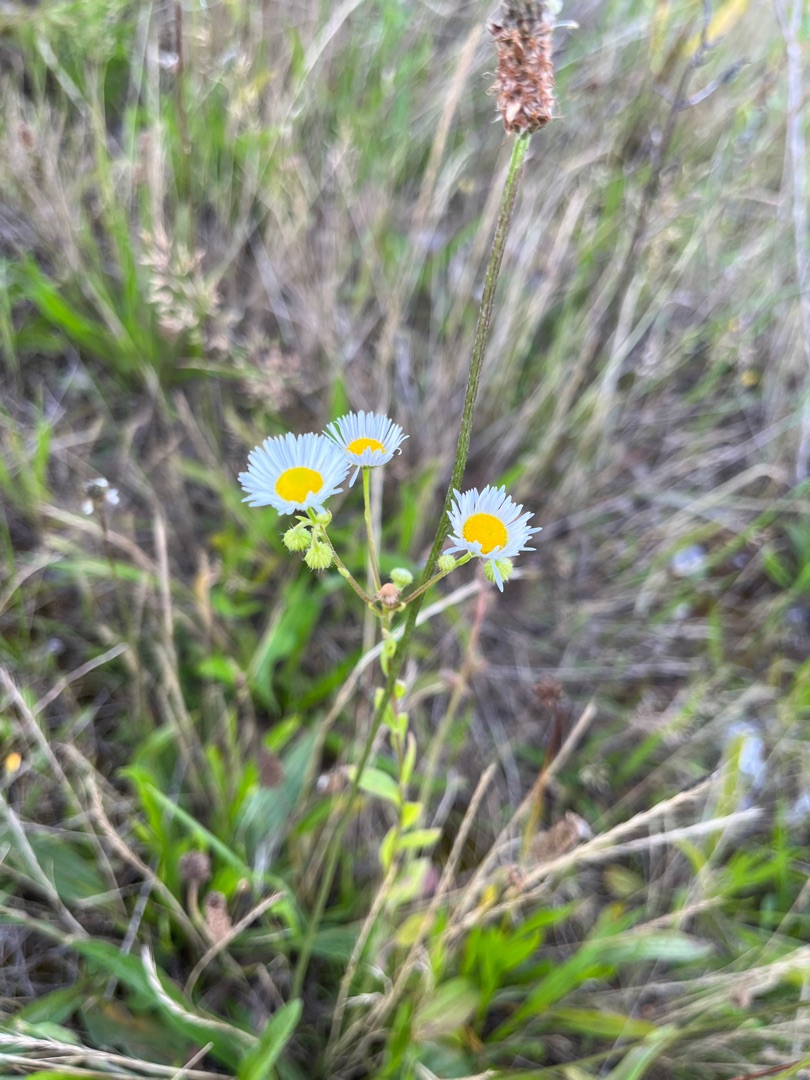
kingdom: Plantae
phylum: Tracheophyta
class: Magnoliopsida
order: Asterales
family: Asteraceae
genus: Erigeron
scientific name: Erigeron annuus
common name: Smalstråle
